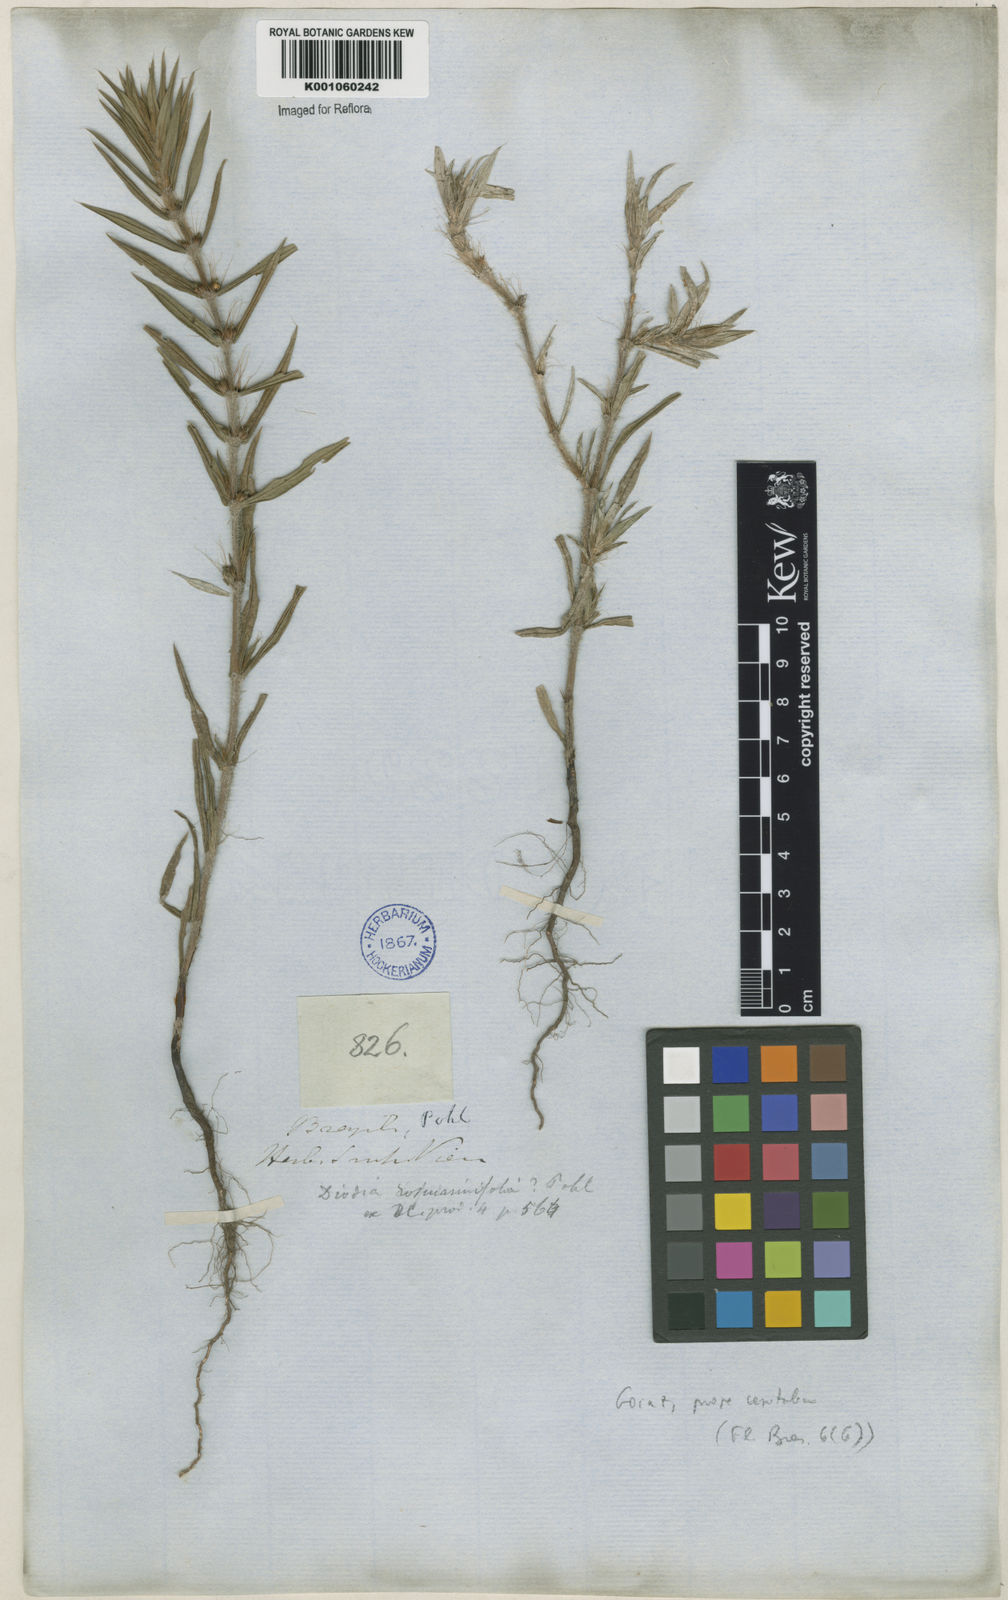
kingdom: Plantae
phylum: Tracheophyta
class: Magnoliopsida
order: Gentianales
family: Rubiaceae
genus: Hexasepalum
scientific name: Hexasepalum apiculatum
